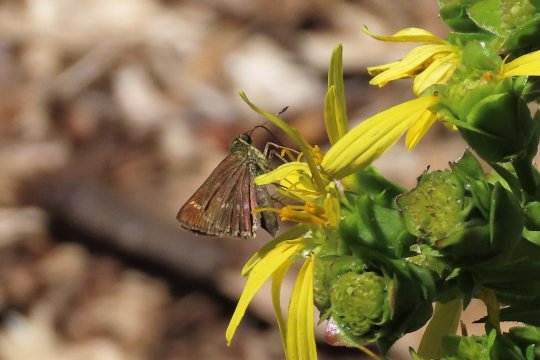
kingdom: Animalia
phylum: Arthropoda
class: Insecta
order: Lepidoptera
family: Hesperiidae
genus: Vernia
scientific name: Vernia verna
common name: Little Glassywing
